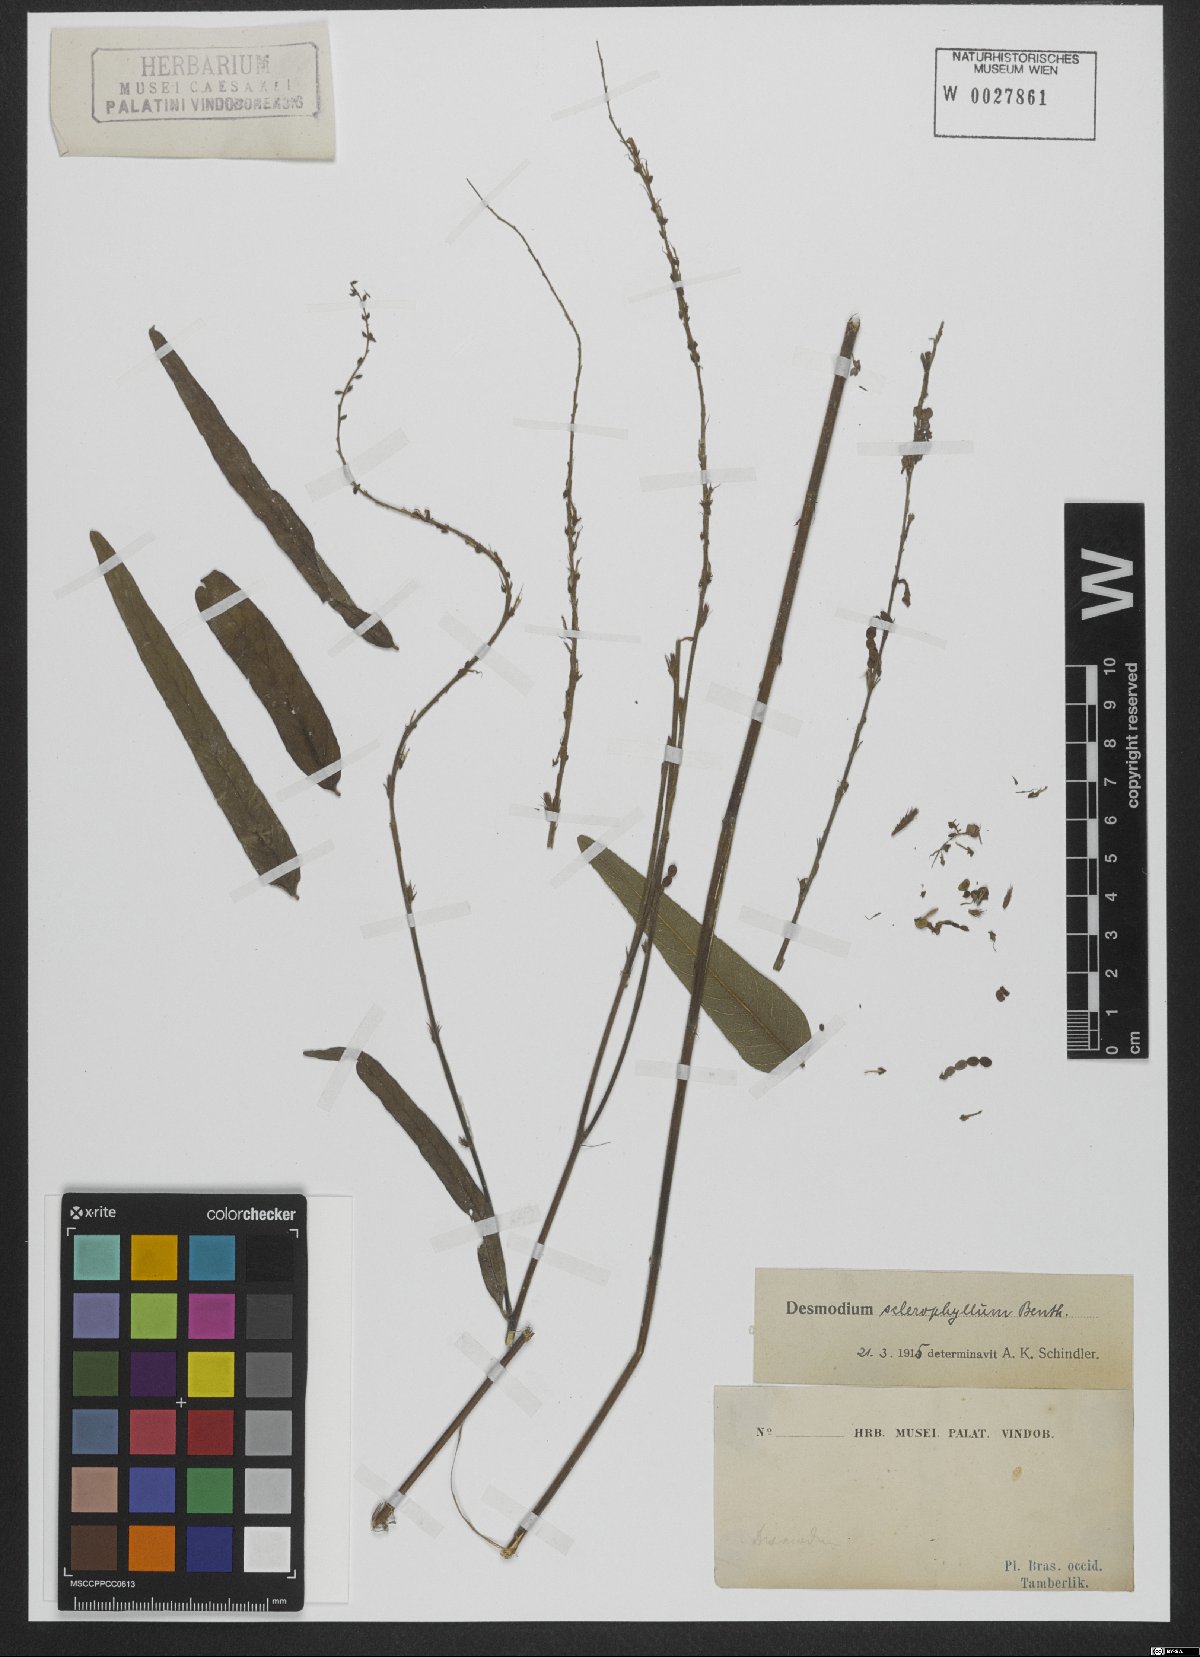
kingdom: Plantae
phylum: Tracheophyta
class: Magnoliopsida
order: Fabales
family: Fabaceae
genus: Desmodium
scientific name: Desmodium sclerophyllum
